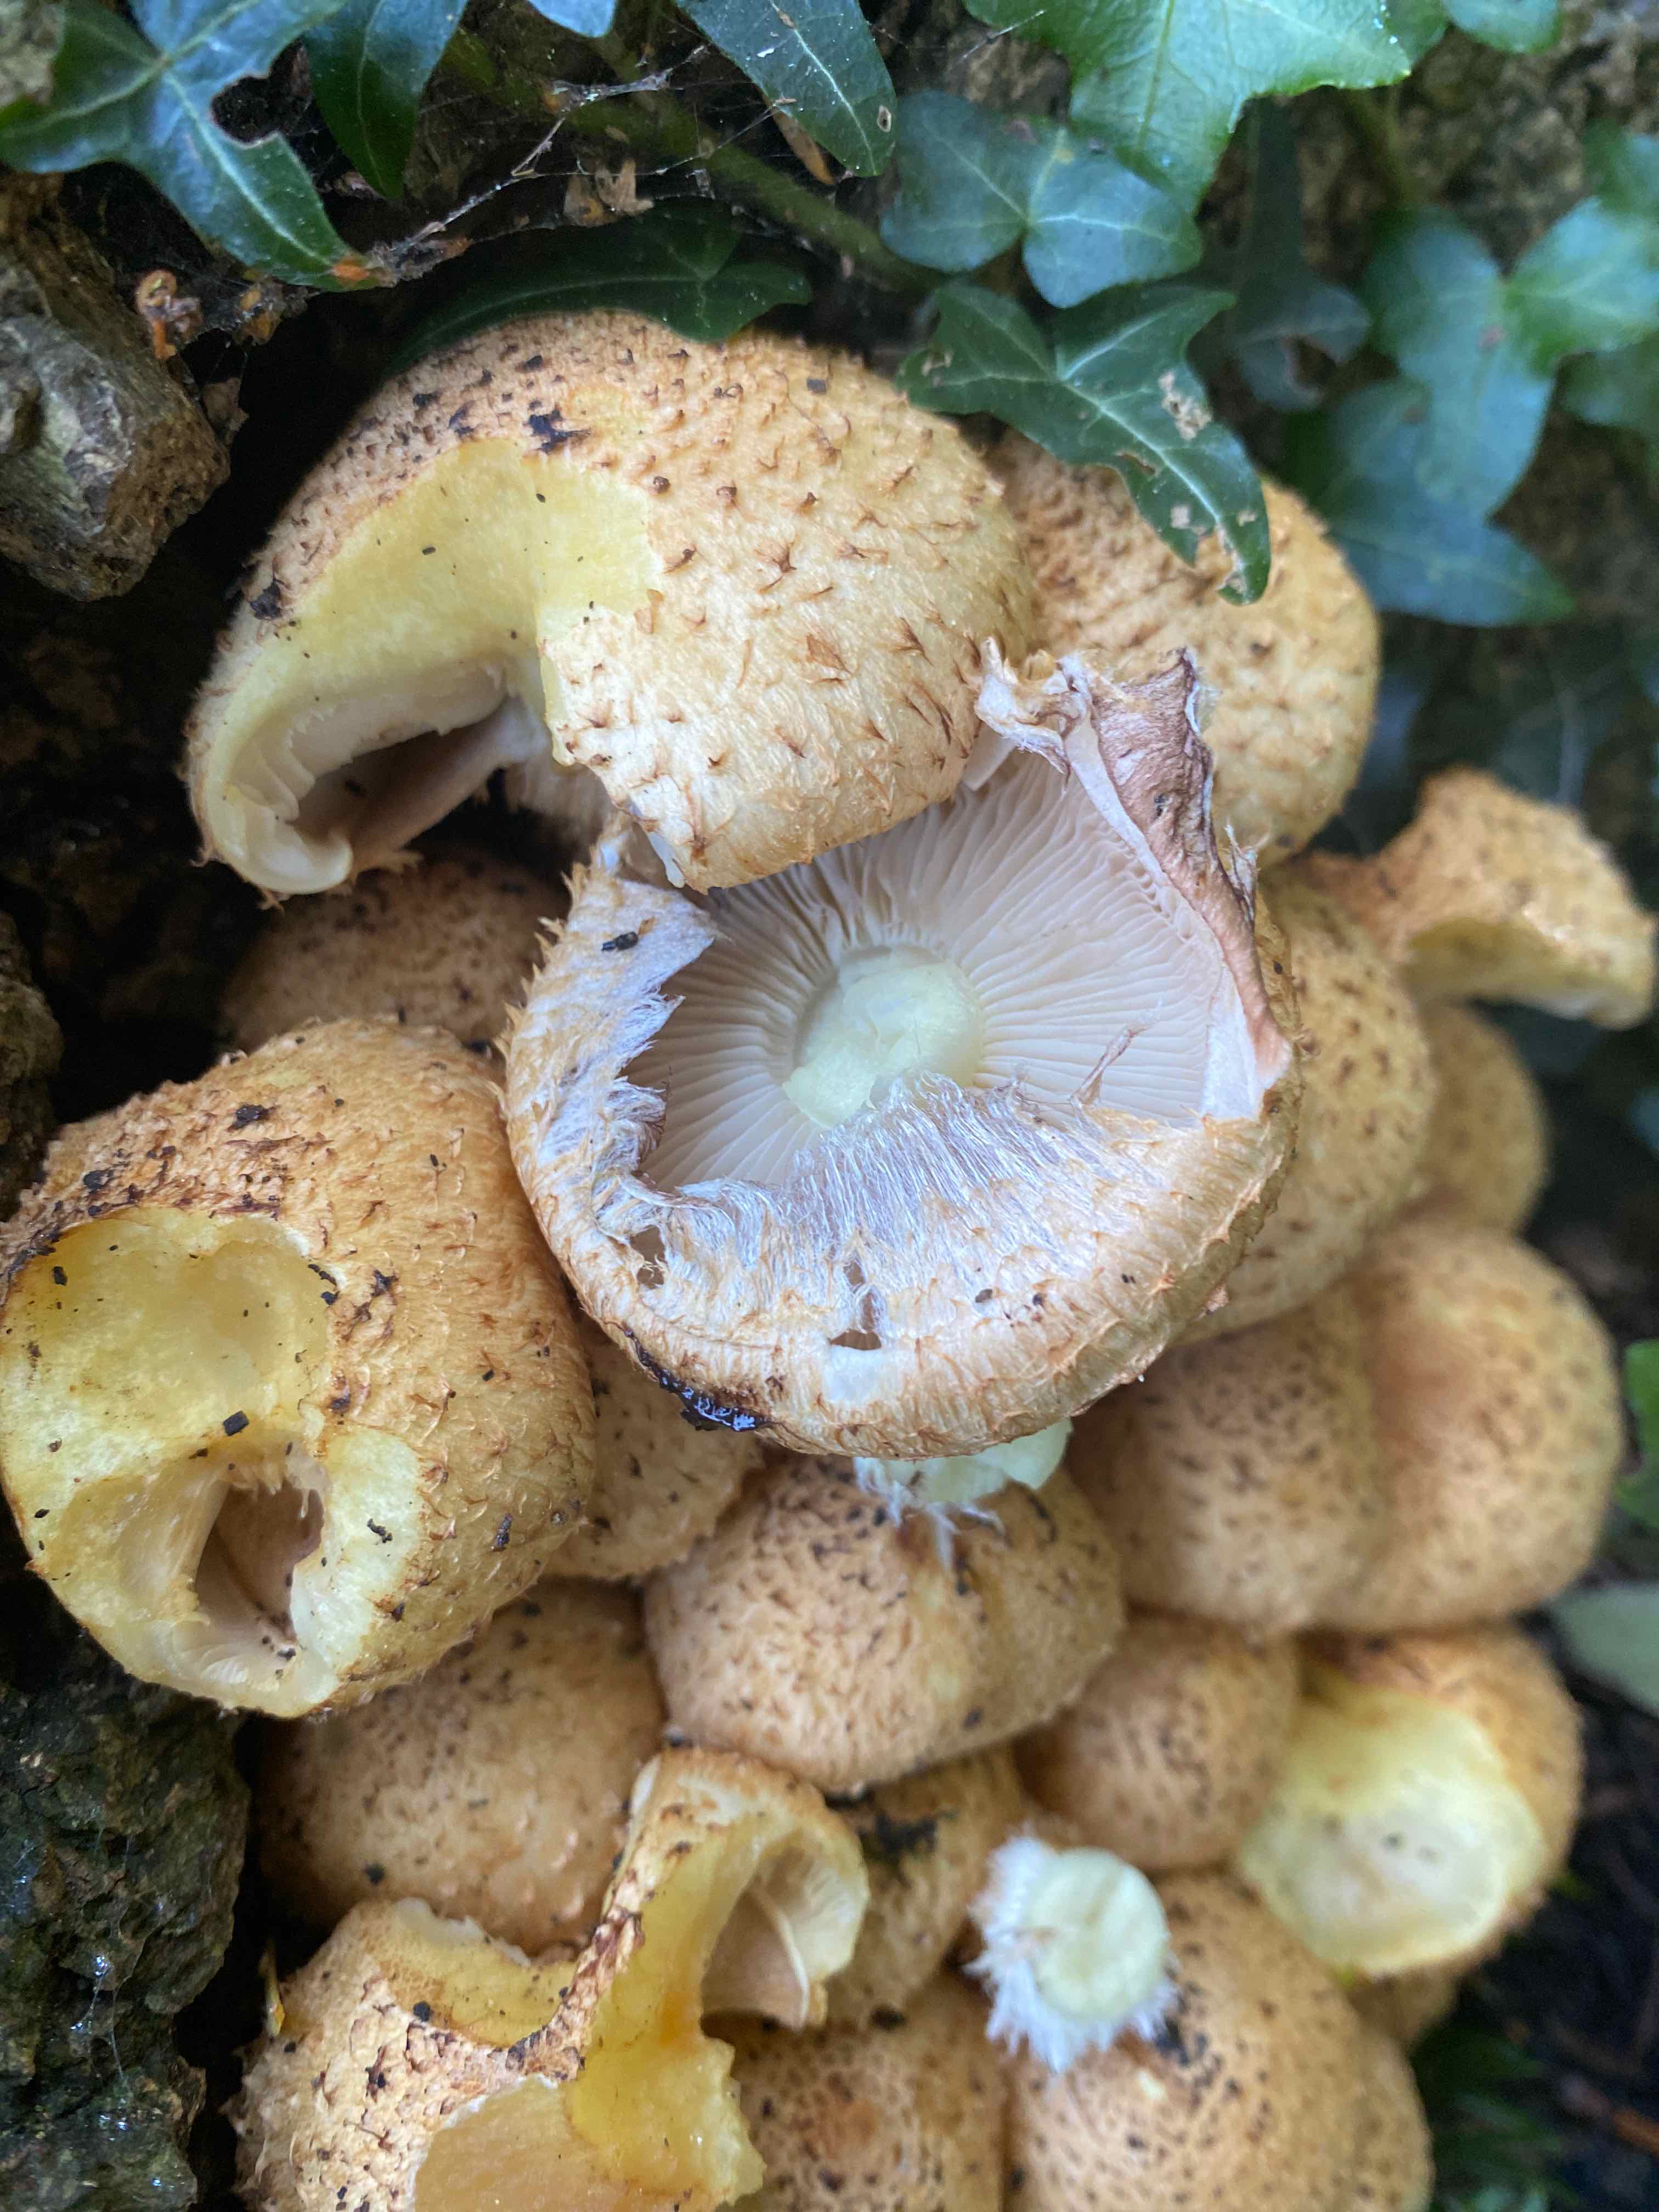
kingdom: Fungi
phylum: Basidiomycota
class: Agaricomycetes
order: Agaricales
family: Strophariaceae
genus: Pholiota
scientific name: Pholiota squarrosa
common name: krumskællet skælhat
